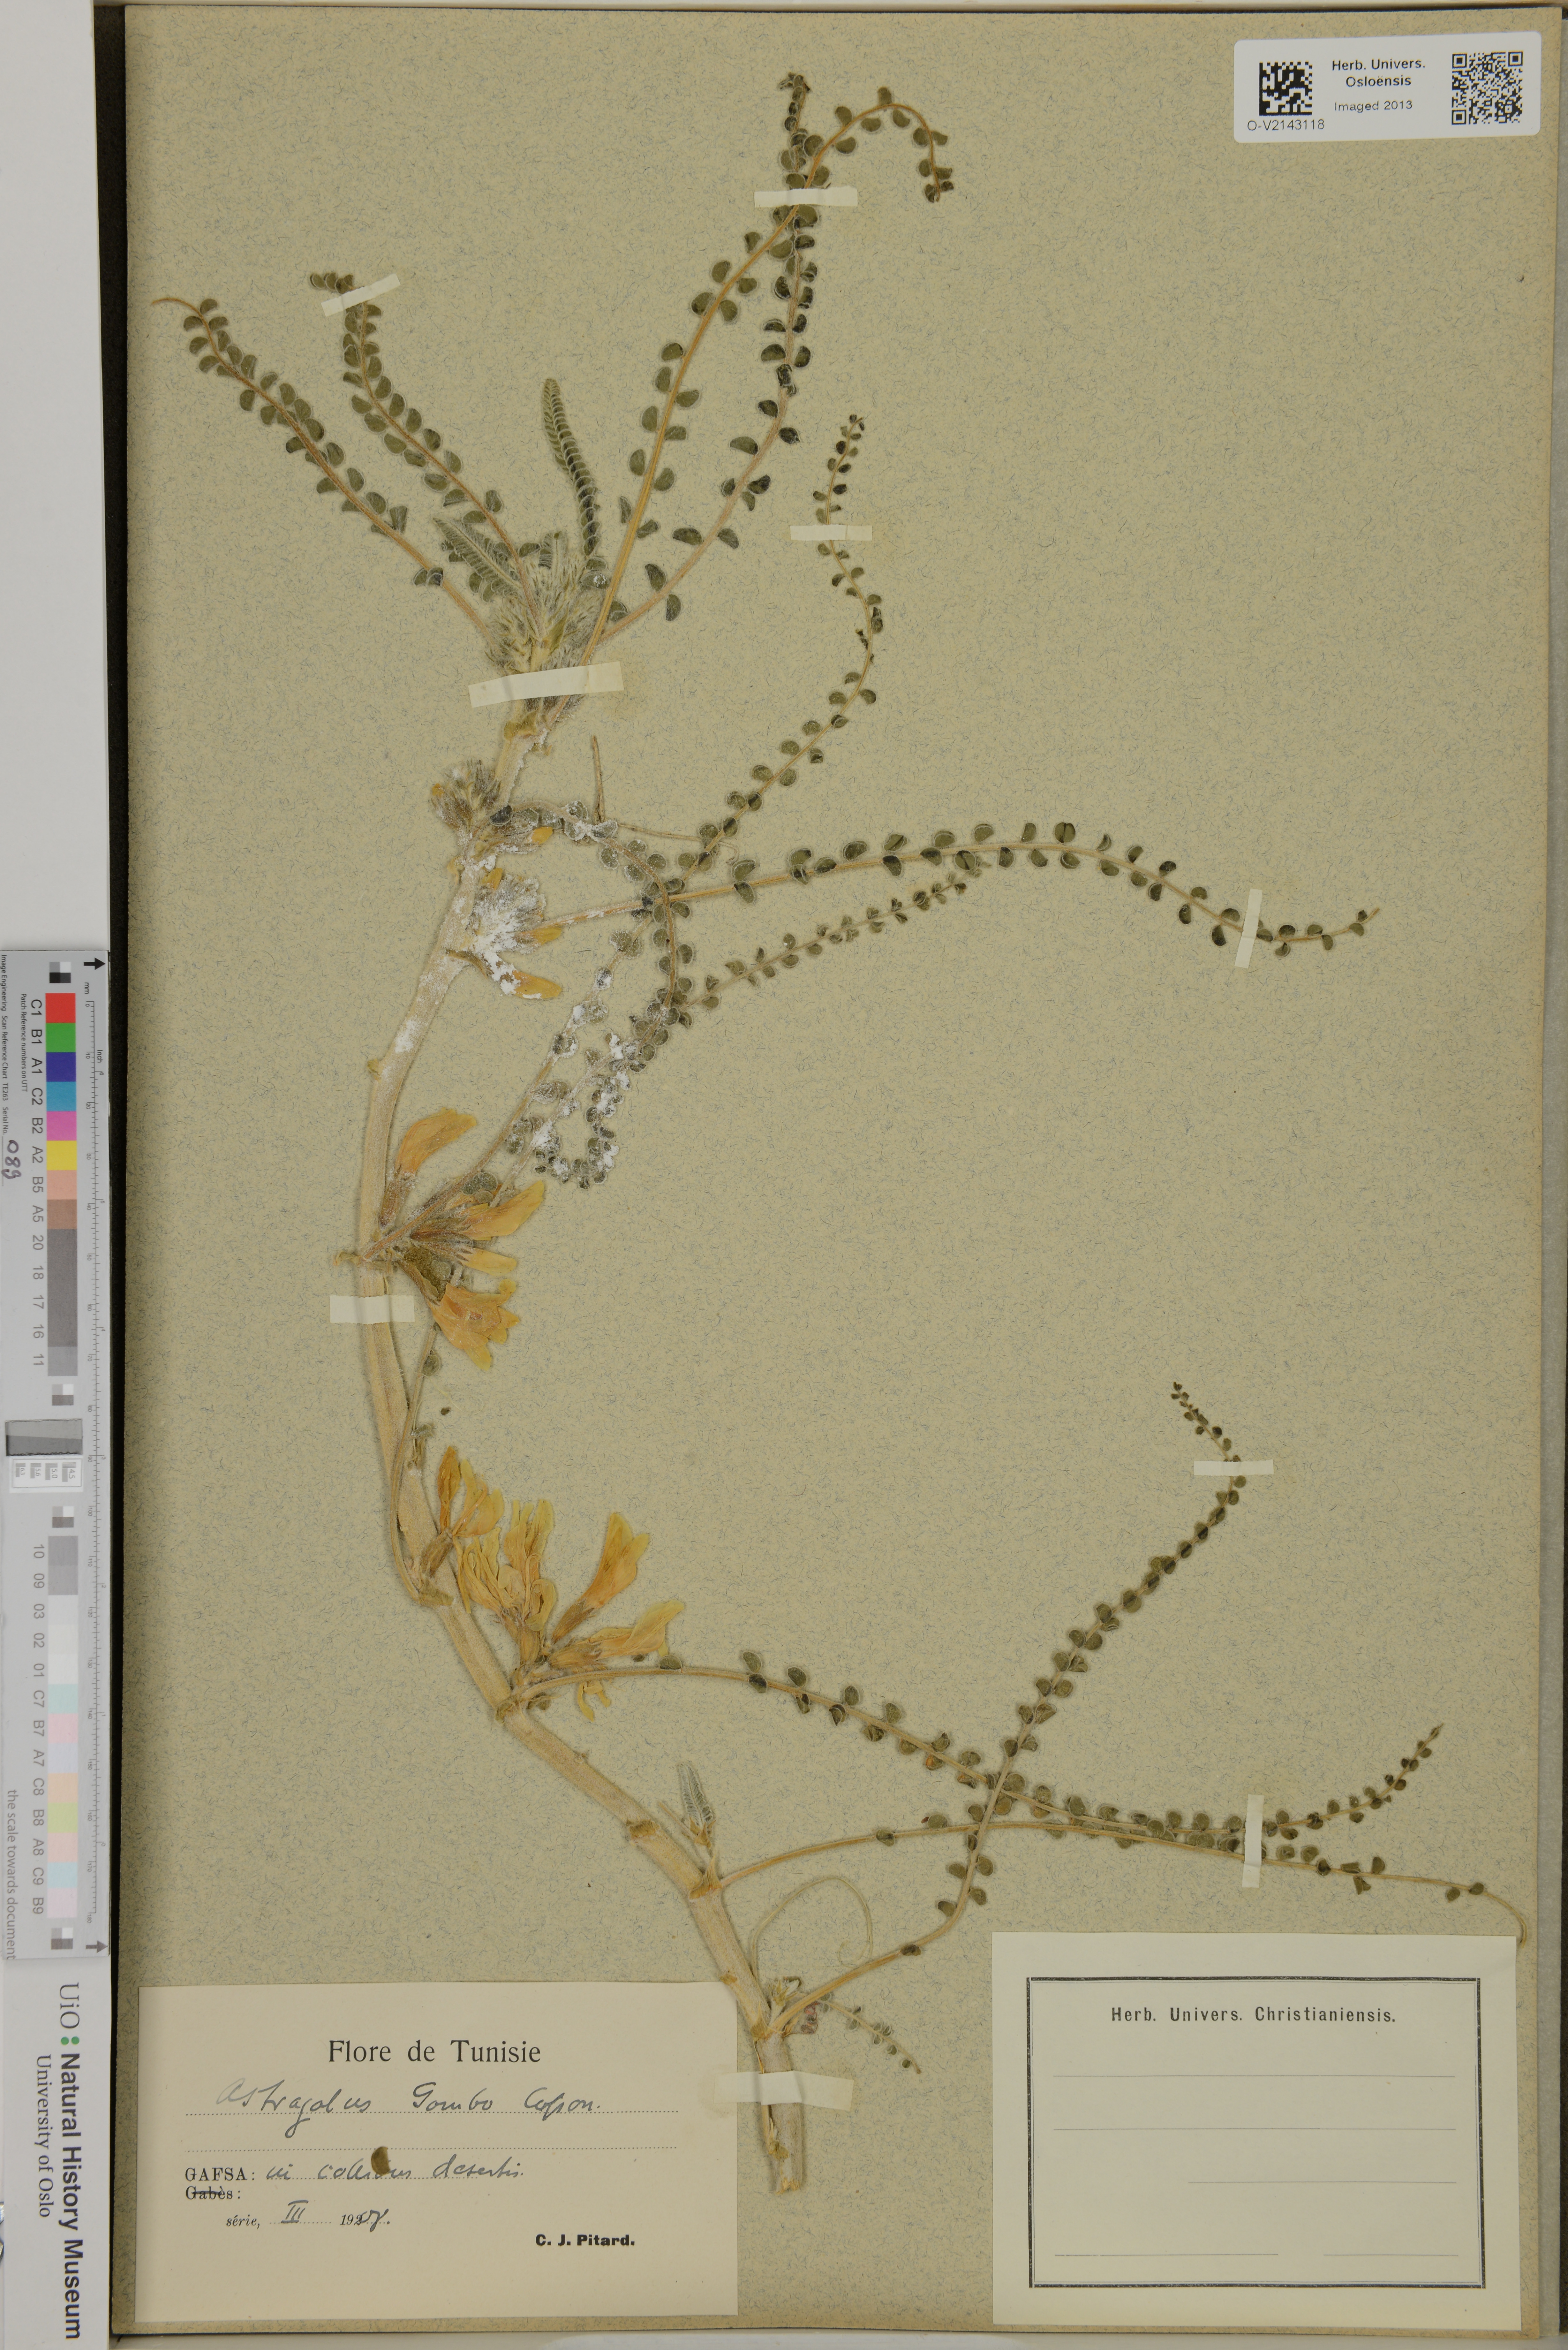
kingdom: Plantae
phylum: Tracheophyta
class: Magnoliopsida
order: Fabales
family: Fabaceae
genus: Astragalus
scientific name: Astragalus gombo
